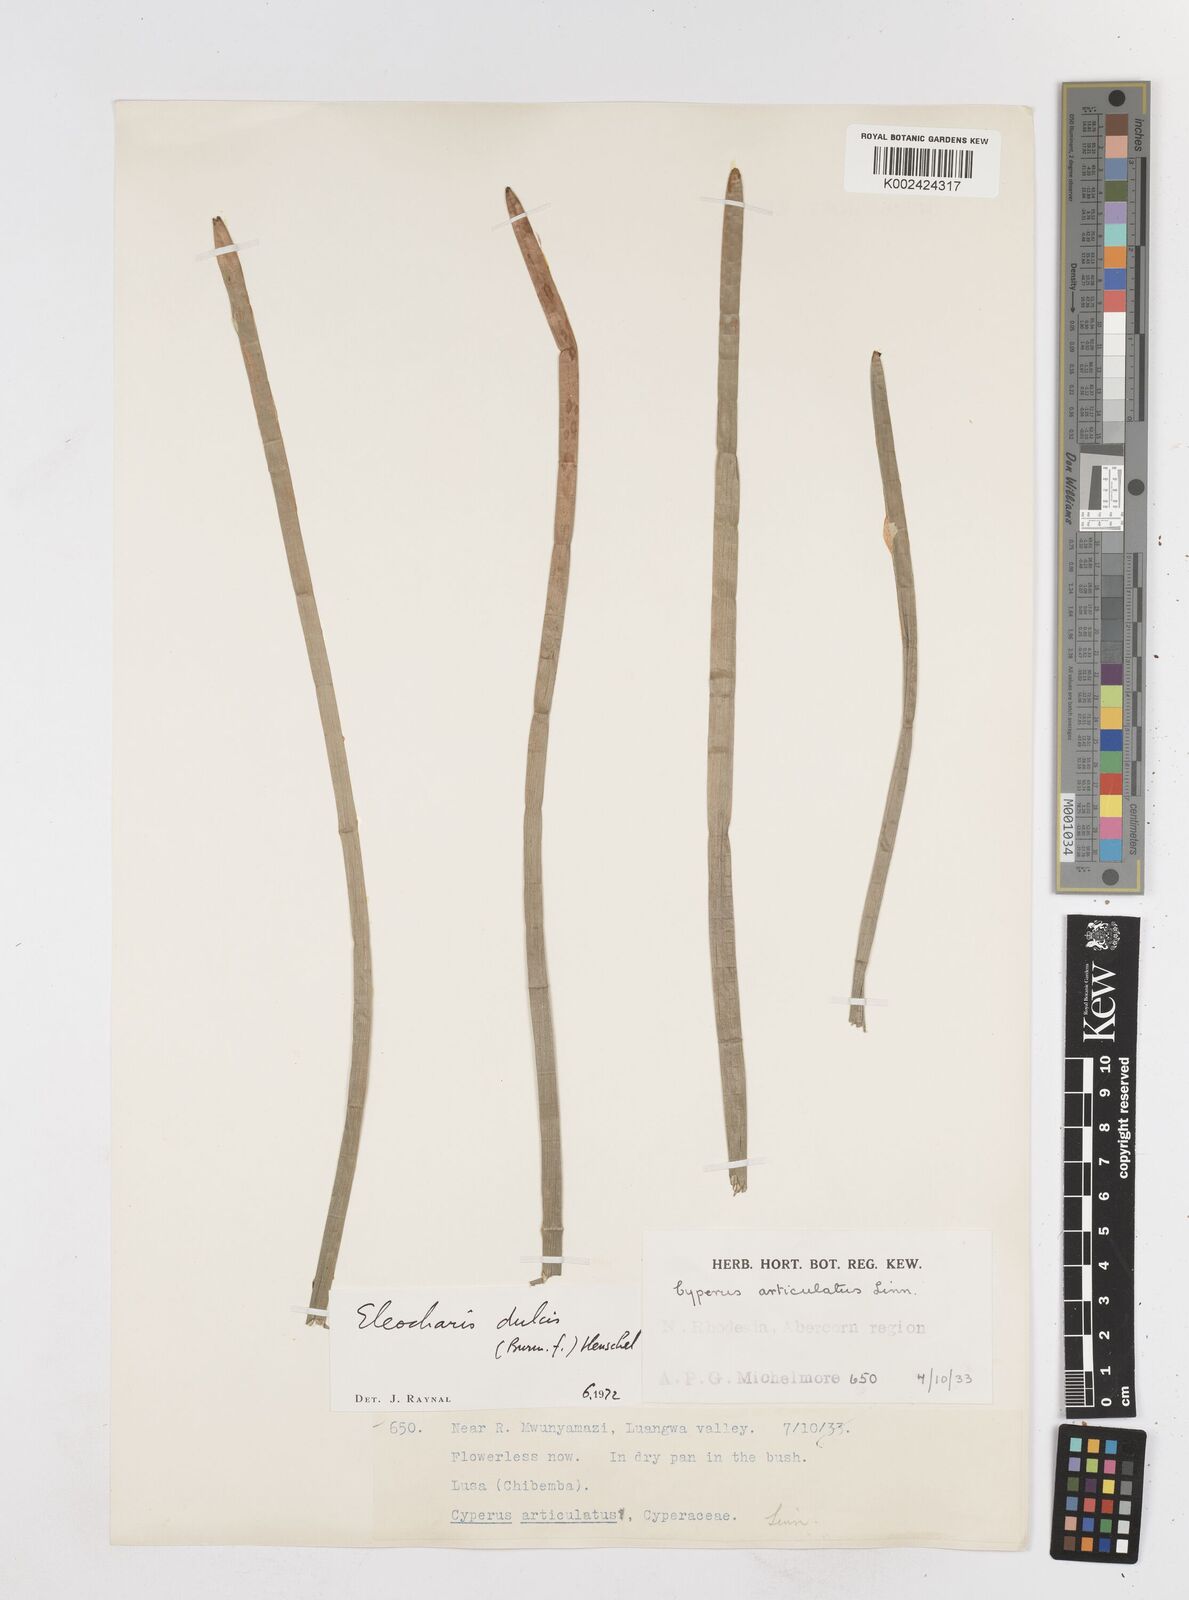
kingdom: Plantae
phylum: Tracheophyta
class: Liliopsida
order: Poales
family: Cyperaceae
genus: Eleocharis
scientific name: Eleocharis dulcis
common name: Chinese water chestnut
